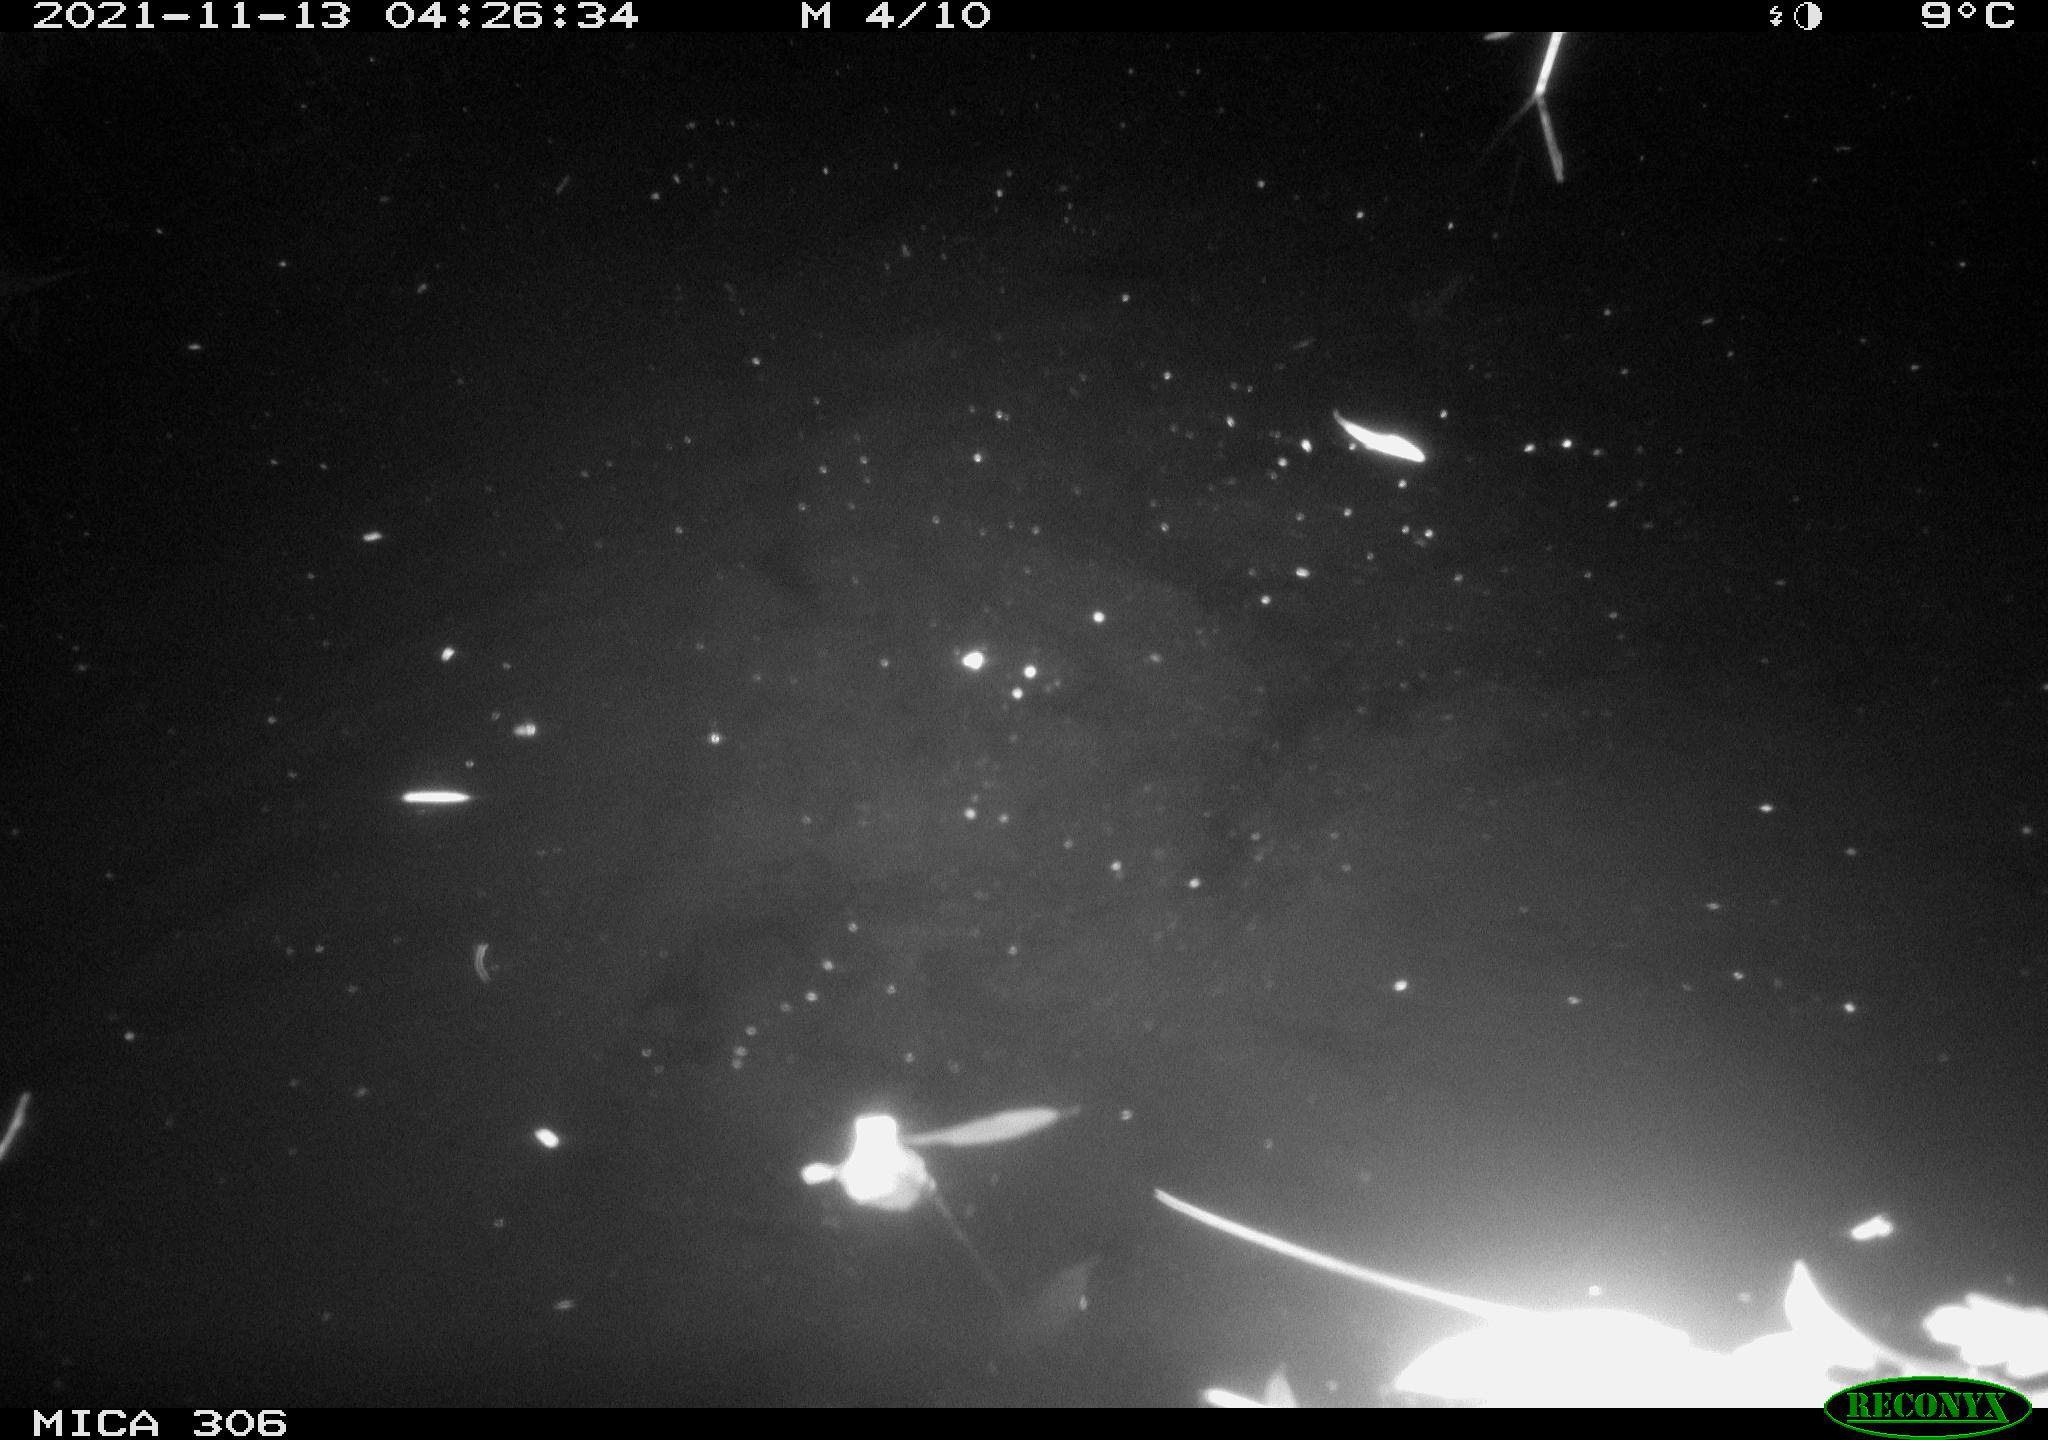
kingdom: Animalia
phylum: Chordata
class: Mammalia
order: Rodentia
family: Muridae
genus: Rattus
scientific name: Rattus norvegicus
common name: Brown rat
